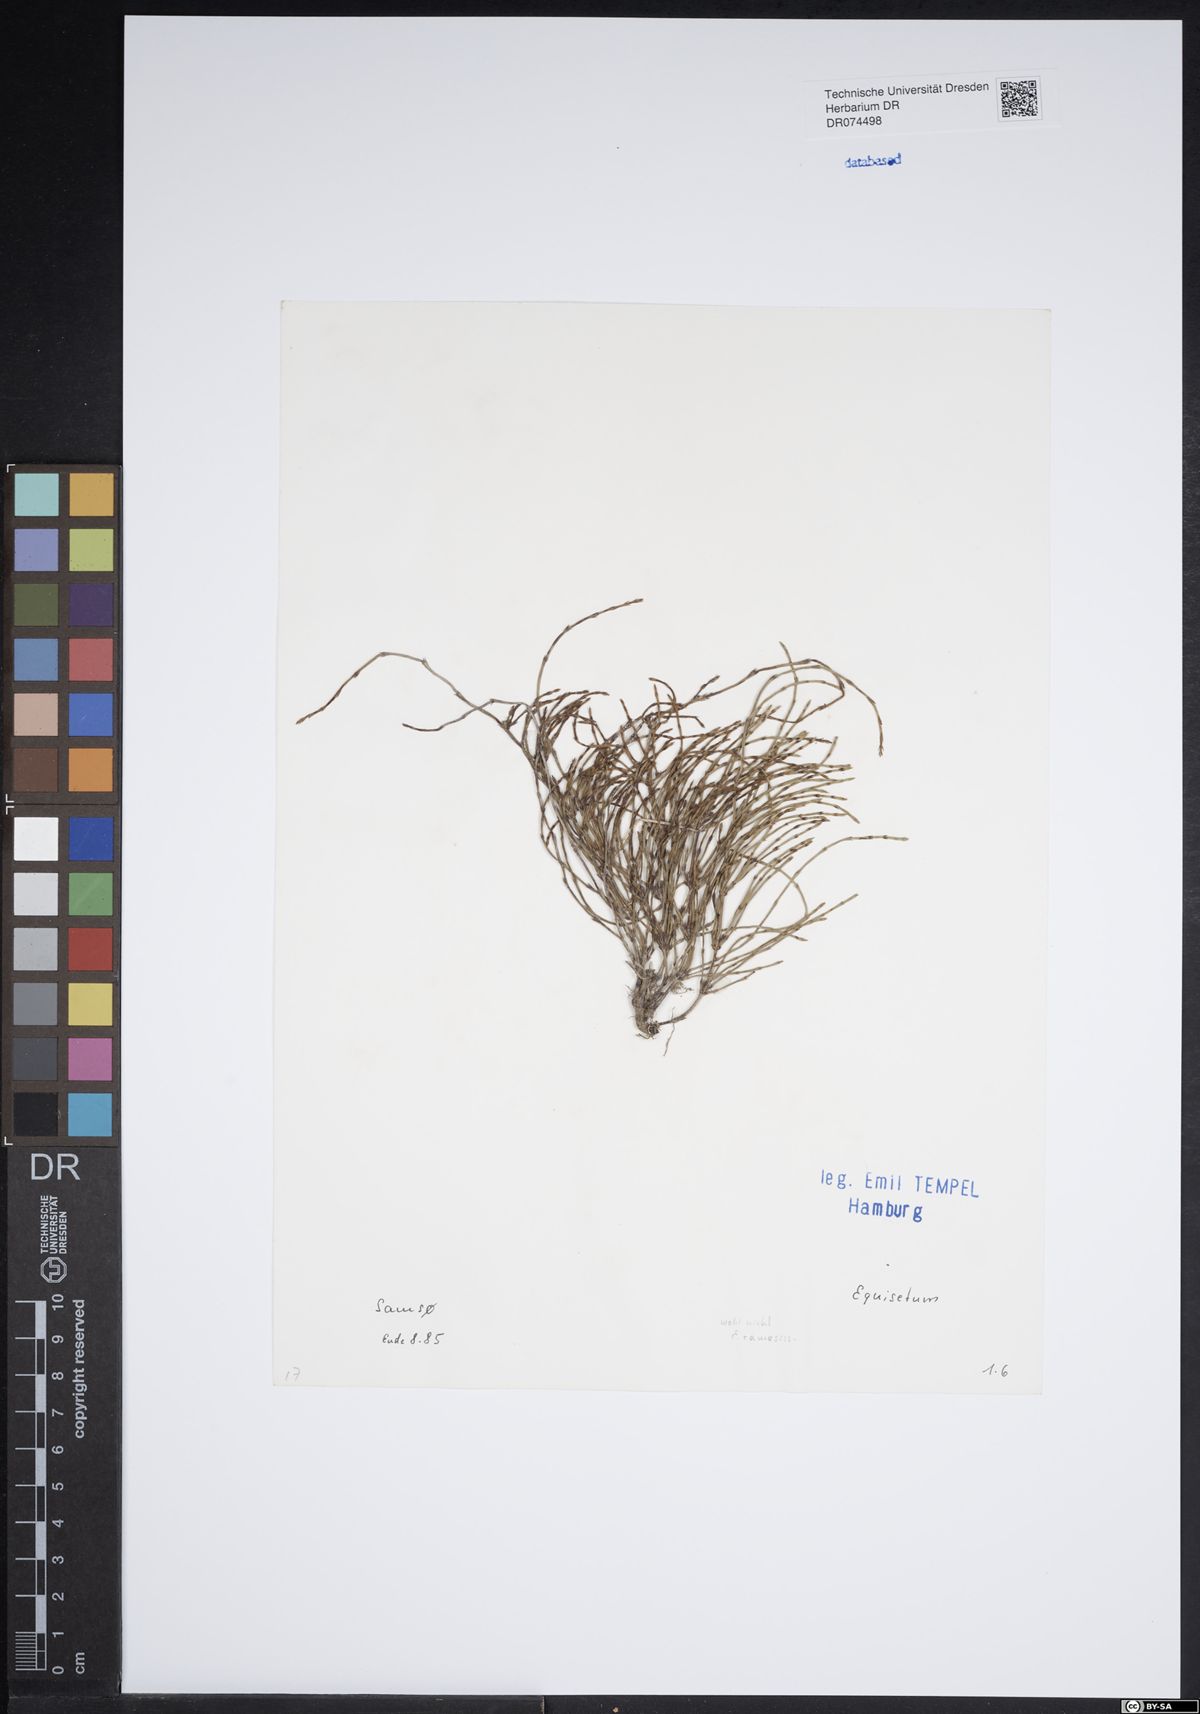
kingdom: Plantae
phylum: Tracheophyta
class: Polypodiopsida
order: Equisetales
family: Equisetaceae
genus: Equisetum
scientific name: Equisetum
